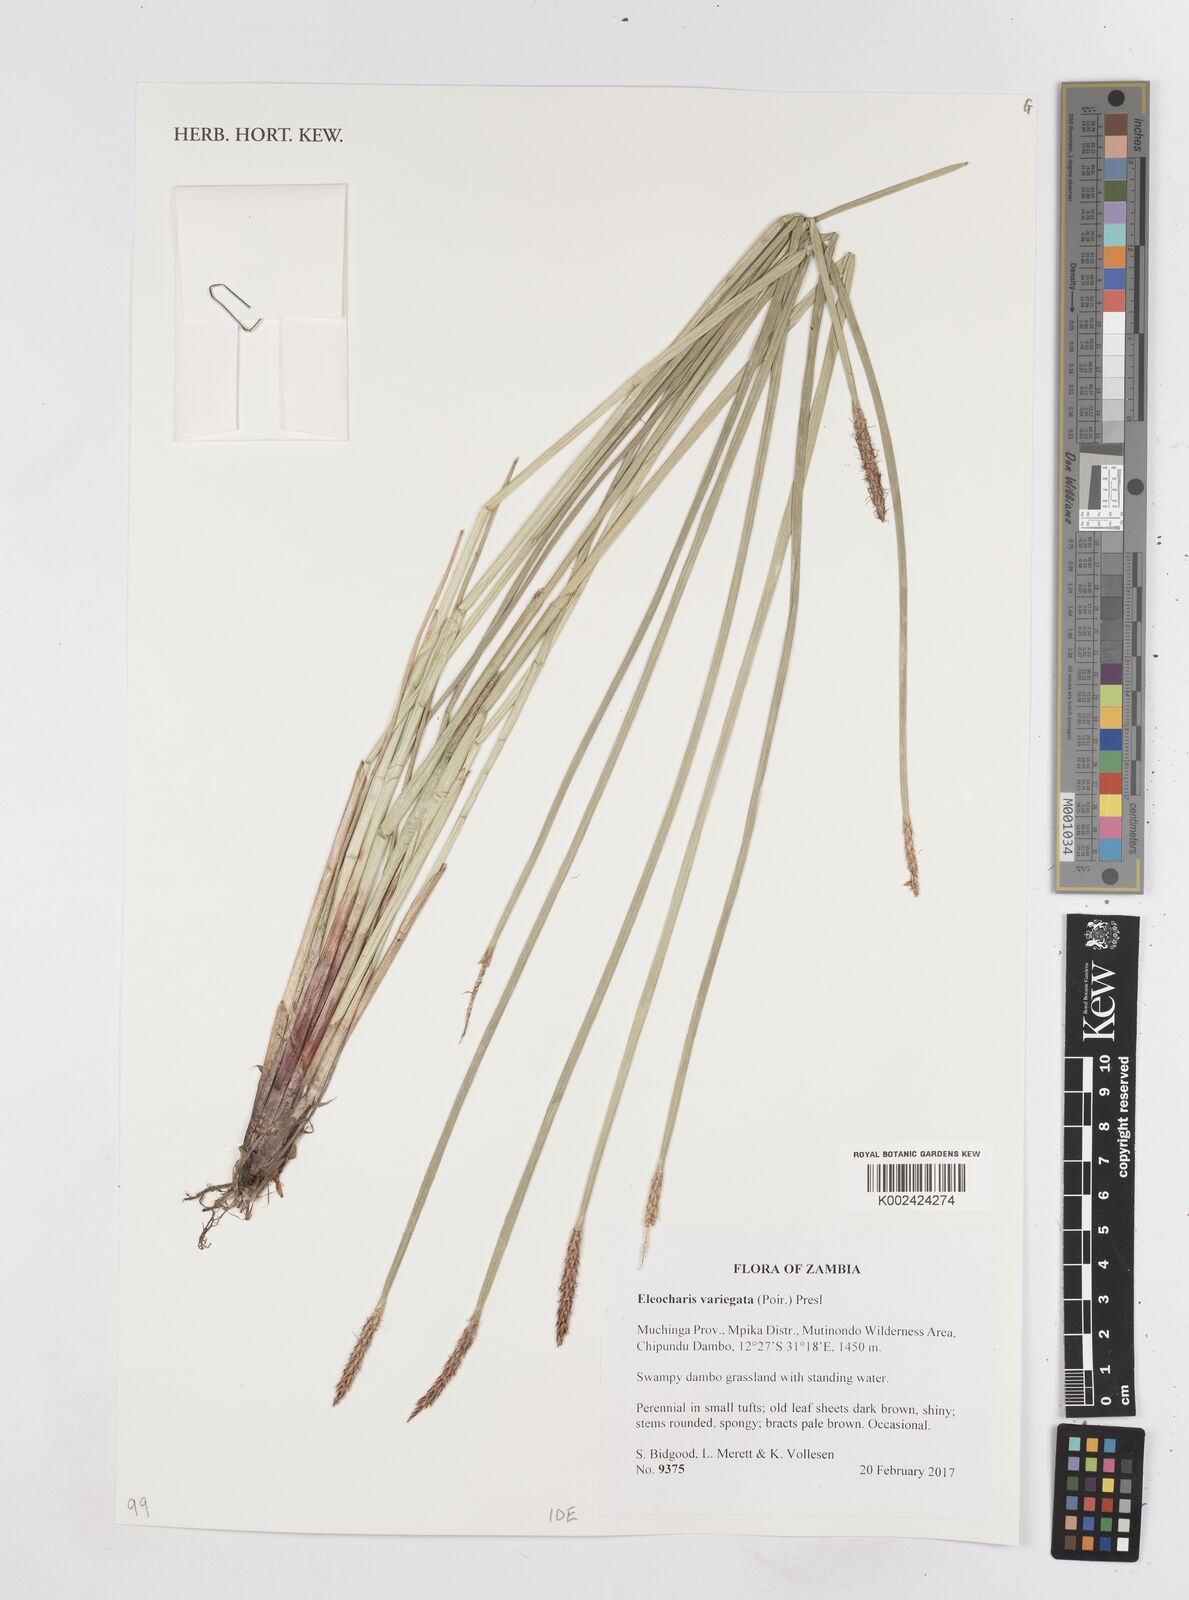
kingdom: Plantae
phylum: Tracheophyta
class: Liliopsida
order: Poales
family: Cyperaceae
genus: Eleocharis
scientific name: Eleocharis variegata
